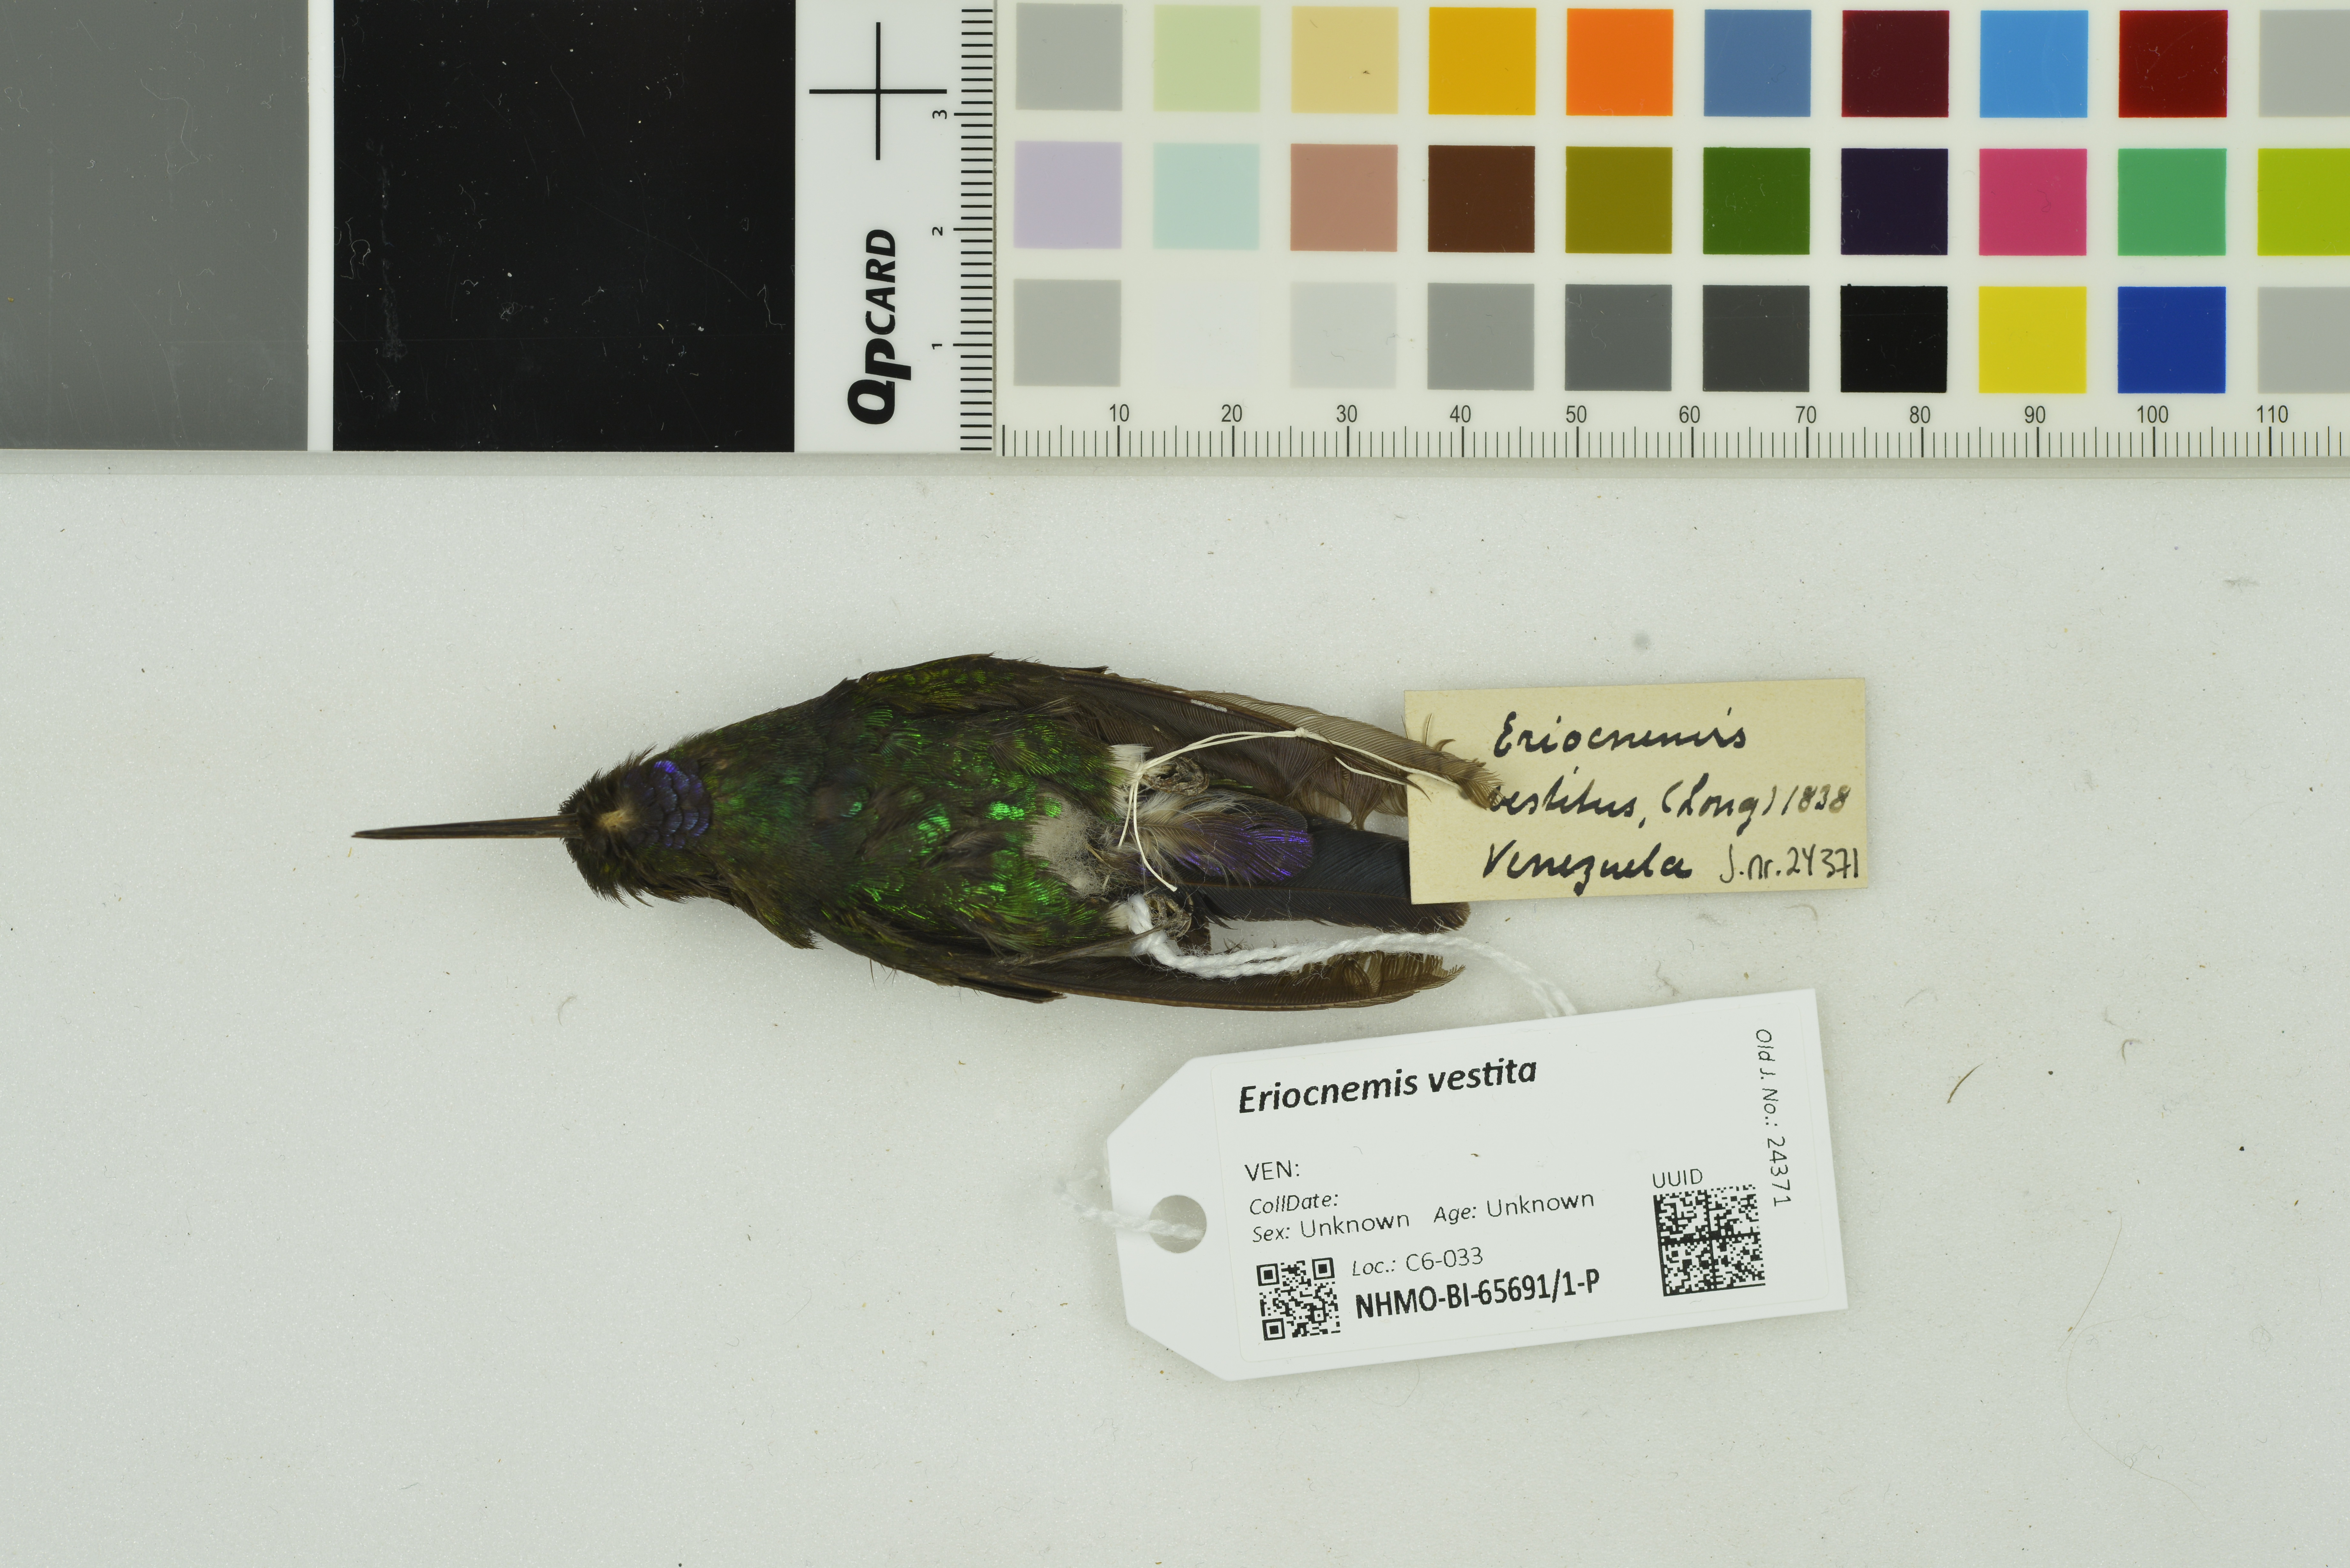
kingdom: Animalia
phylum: Chordata
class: Aves
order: Apodiformes
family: Trochilidae
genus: Eriocnemis
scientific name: Eriocnemis vestita
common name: Glowing puffleg
